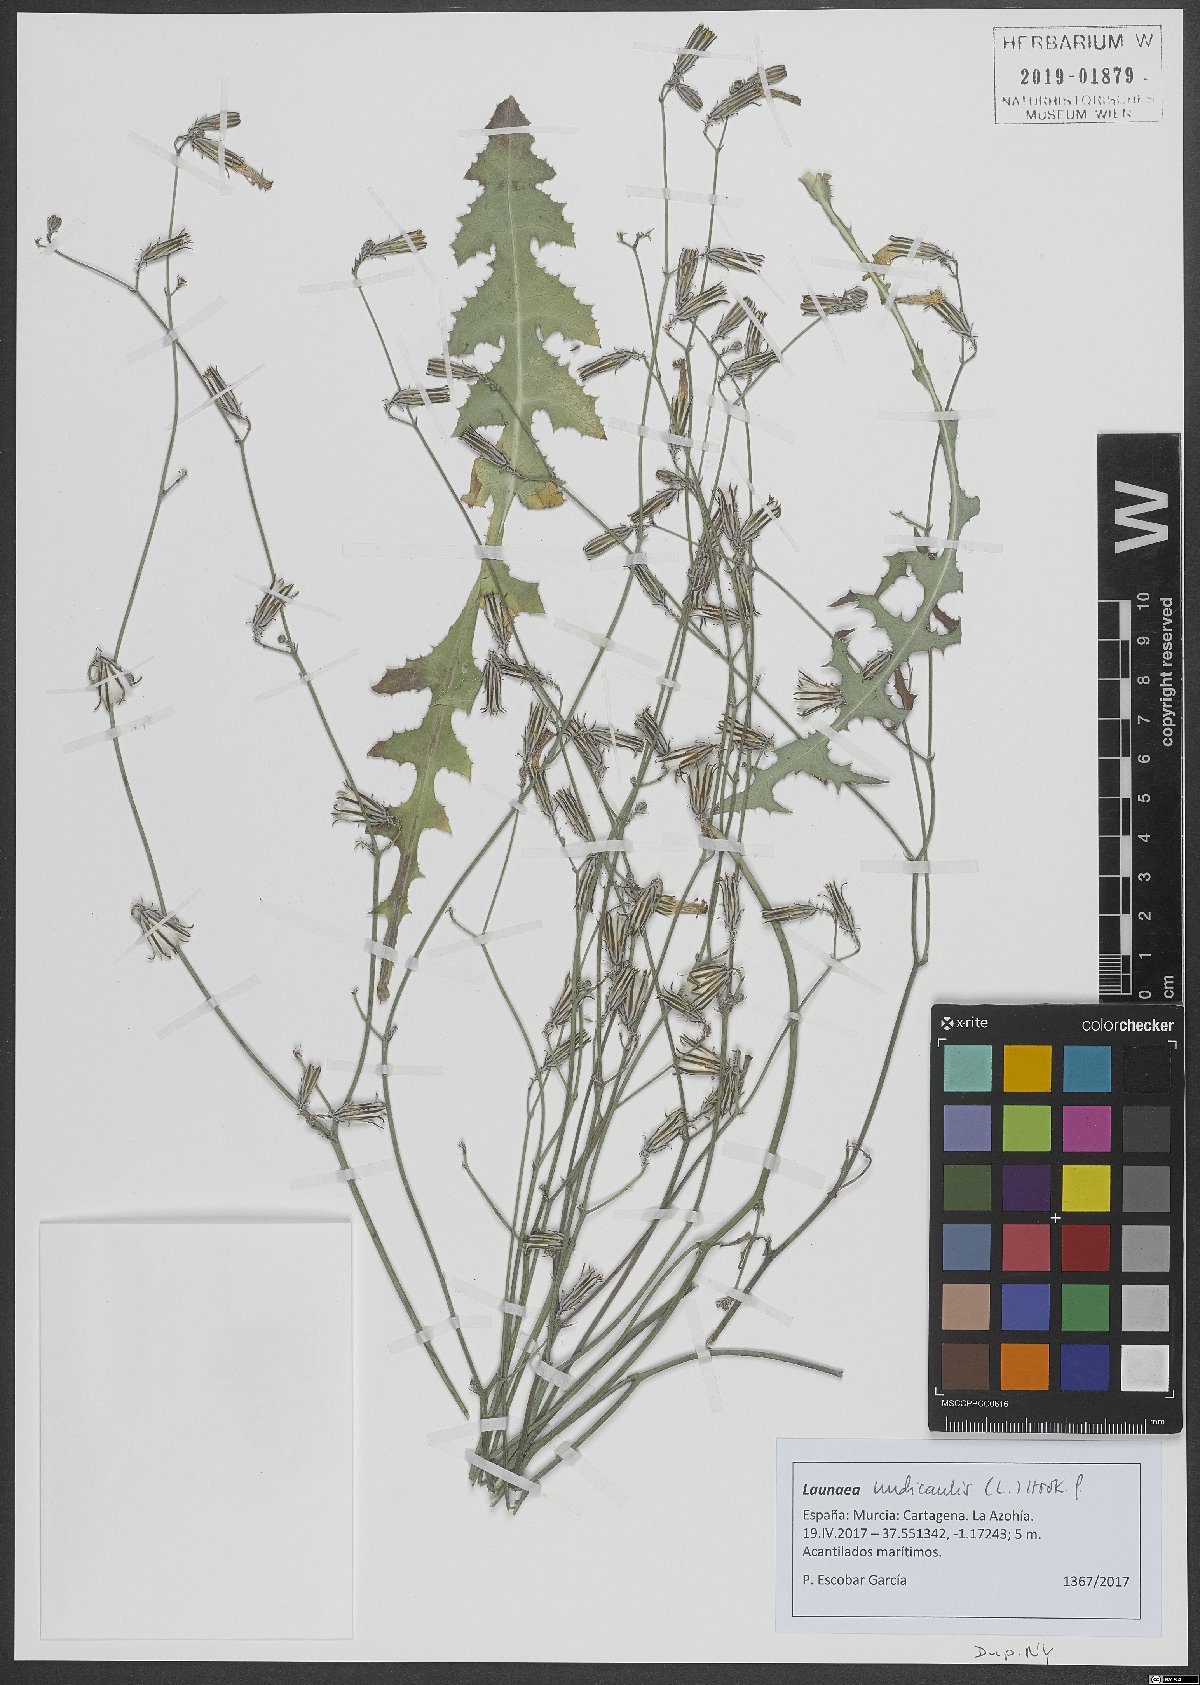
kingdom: Plantae
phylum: Tracheophyta
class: Magnoliopsida
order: Asterales
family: Asteraceae
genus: Launaea
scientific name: Launaea nudicaulis
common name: Naked launaea
